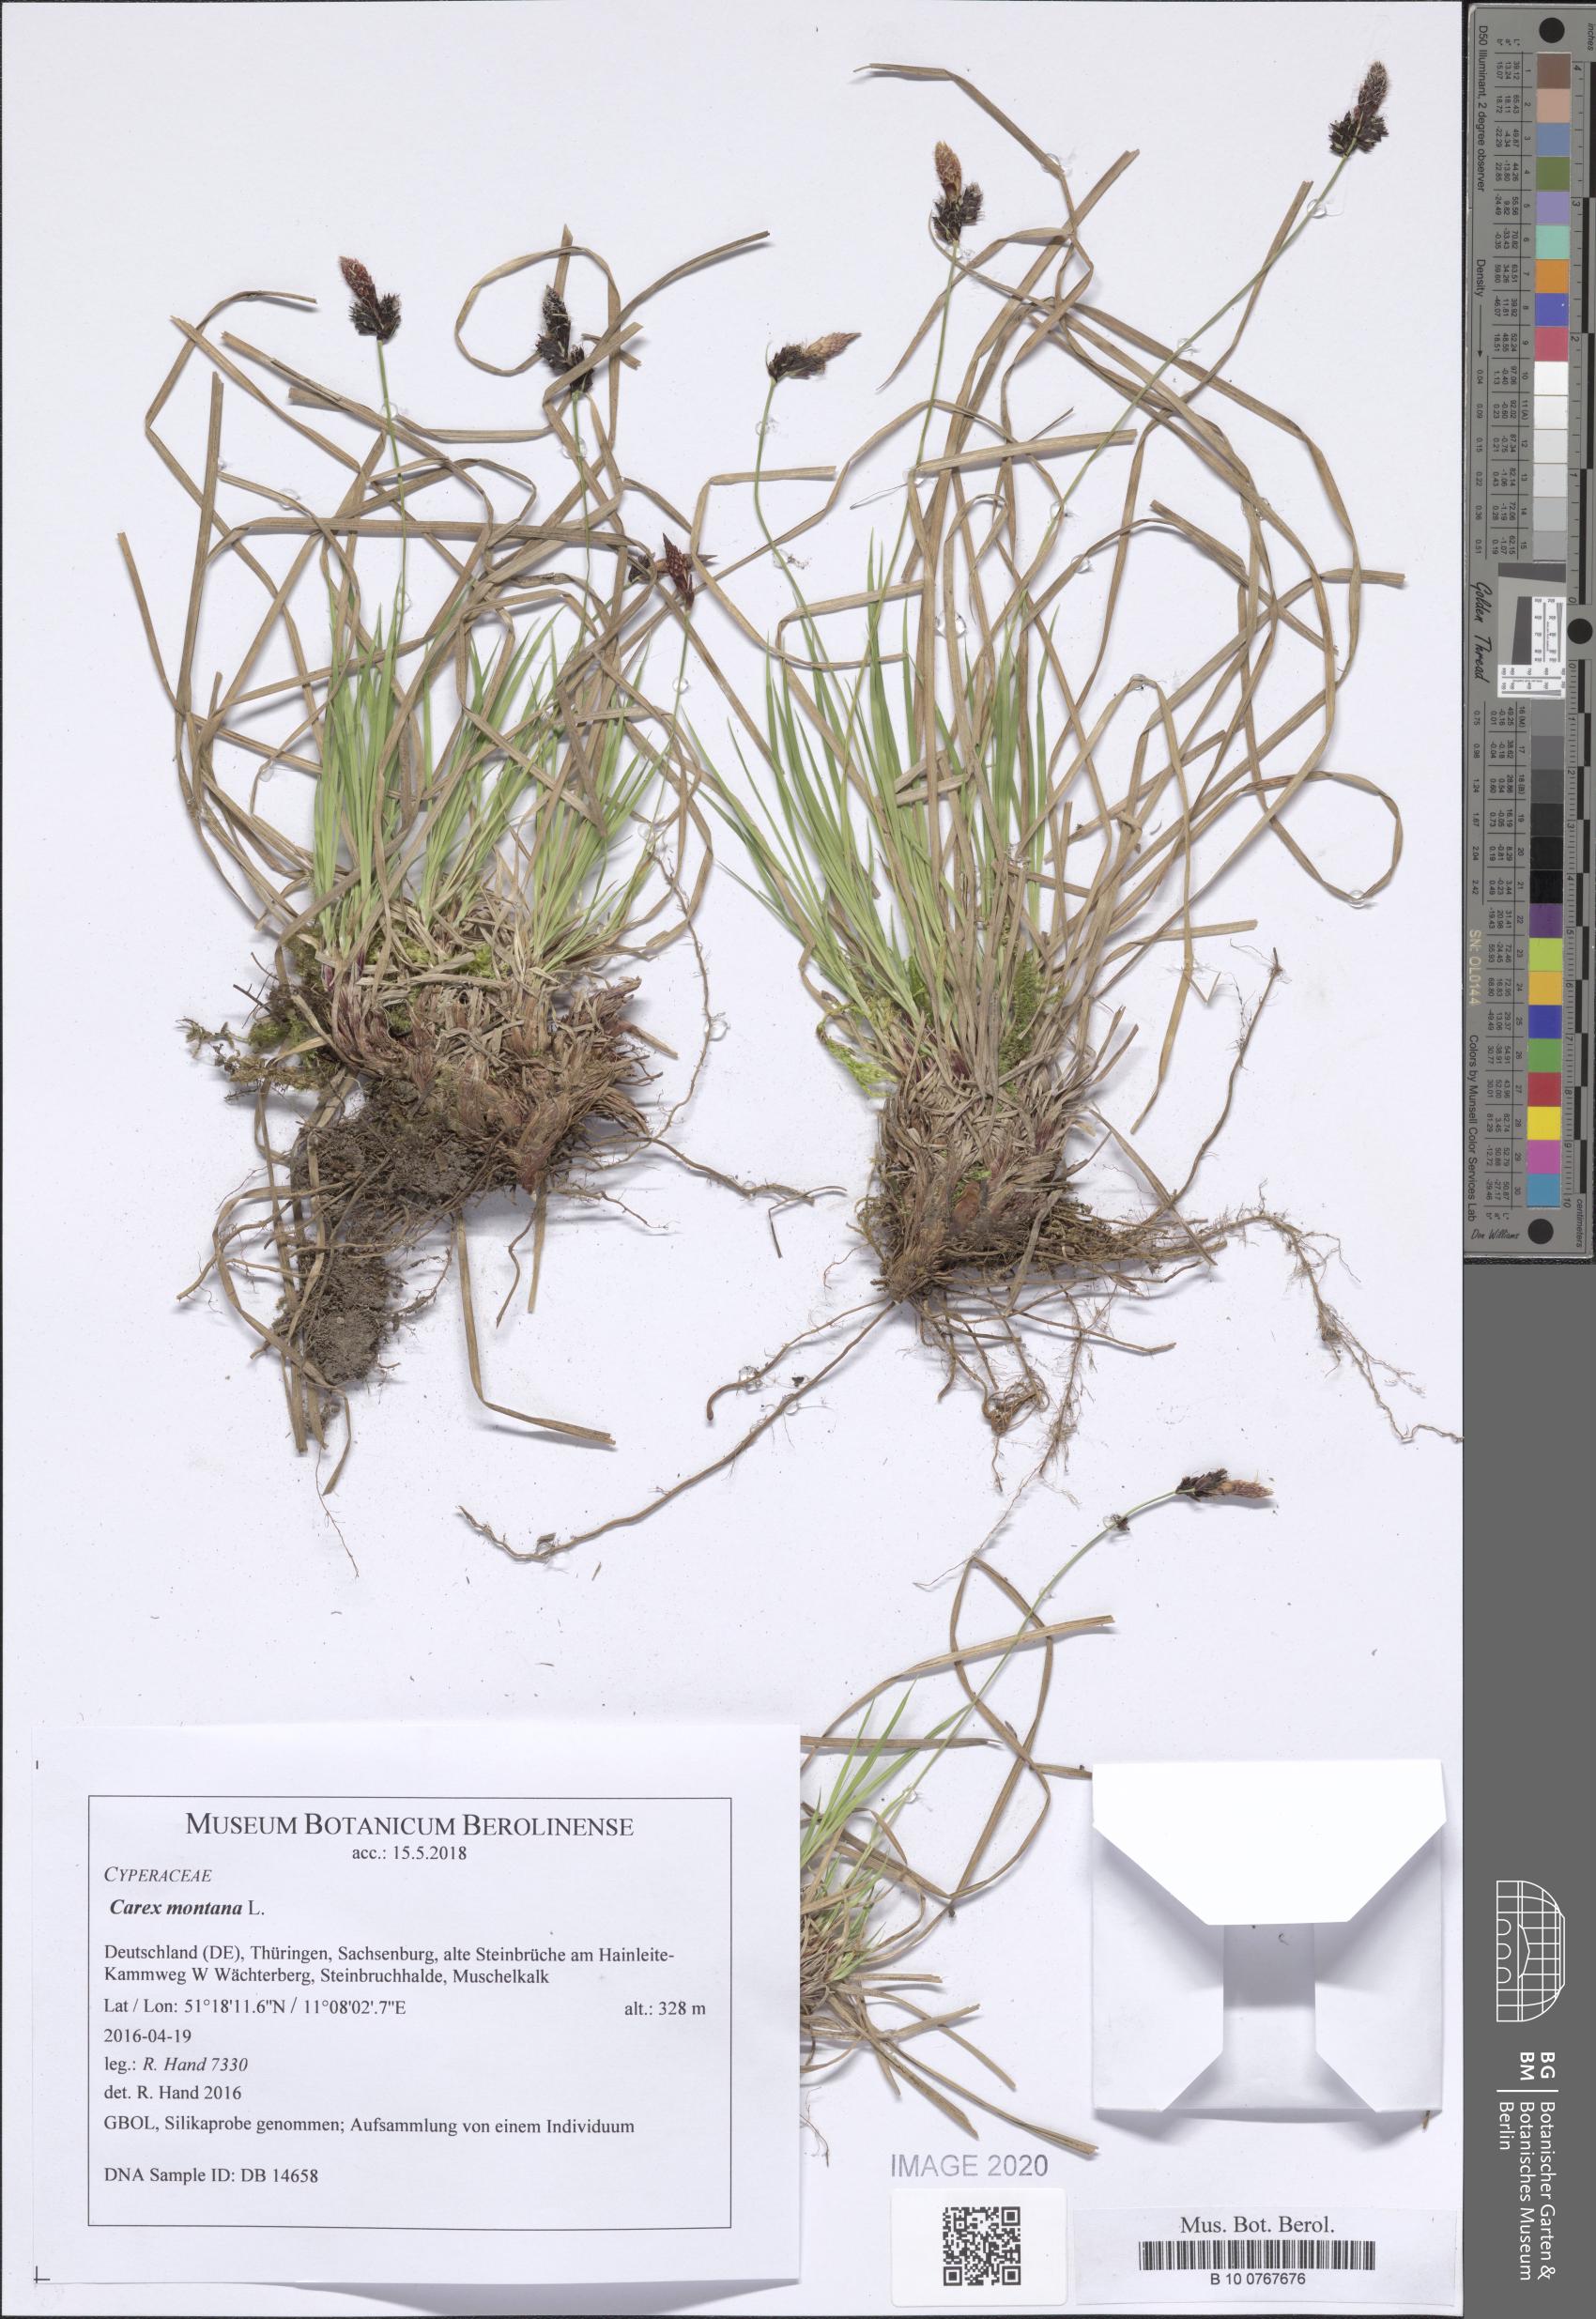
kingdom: Plantae
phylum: Tracheophyta
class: Liliopsida
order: Poales
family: Cyperaceae
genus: Carex
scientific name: Carex montana
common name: Soft-leaved sedge
